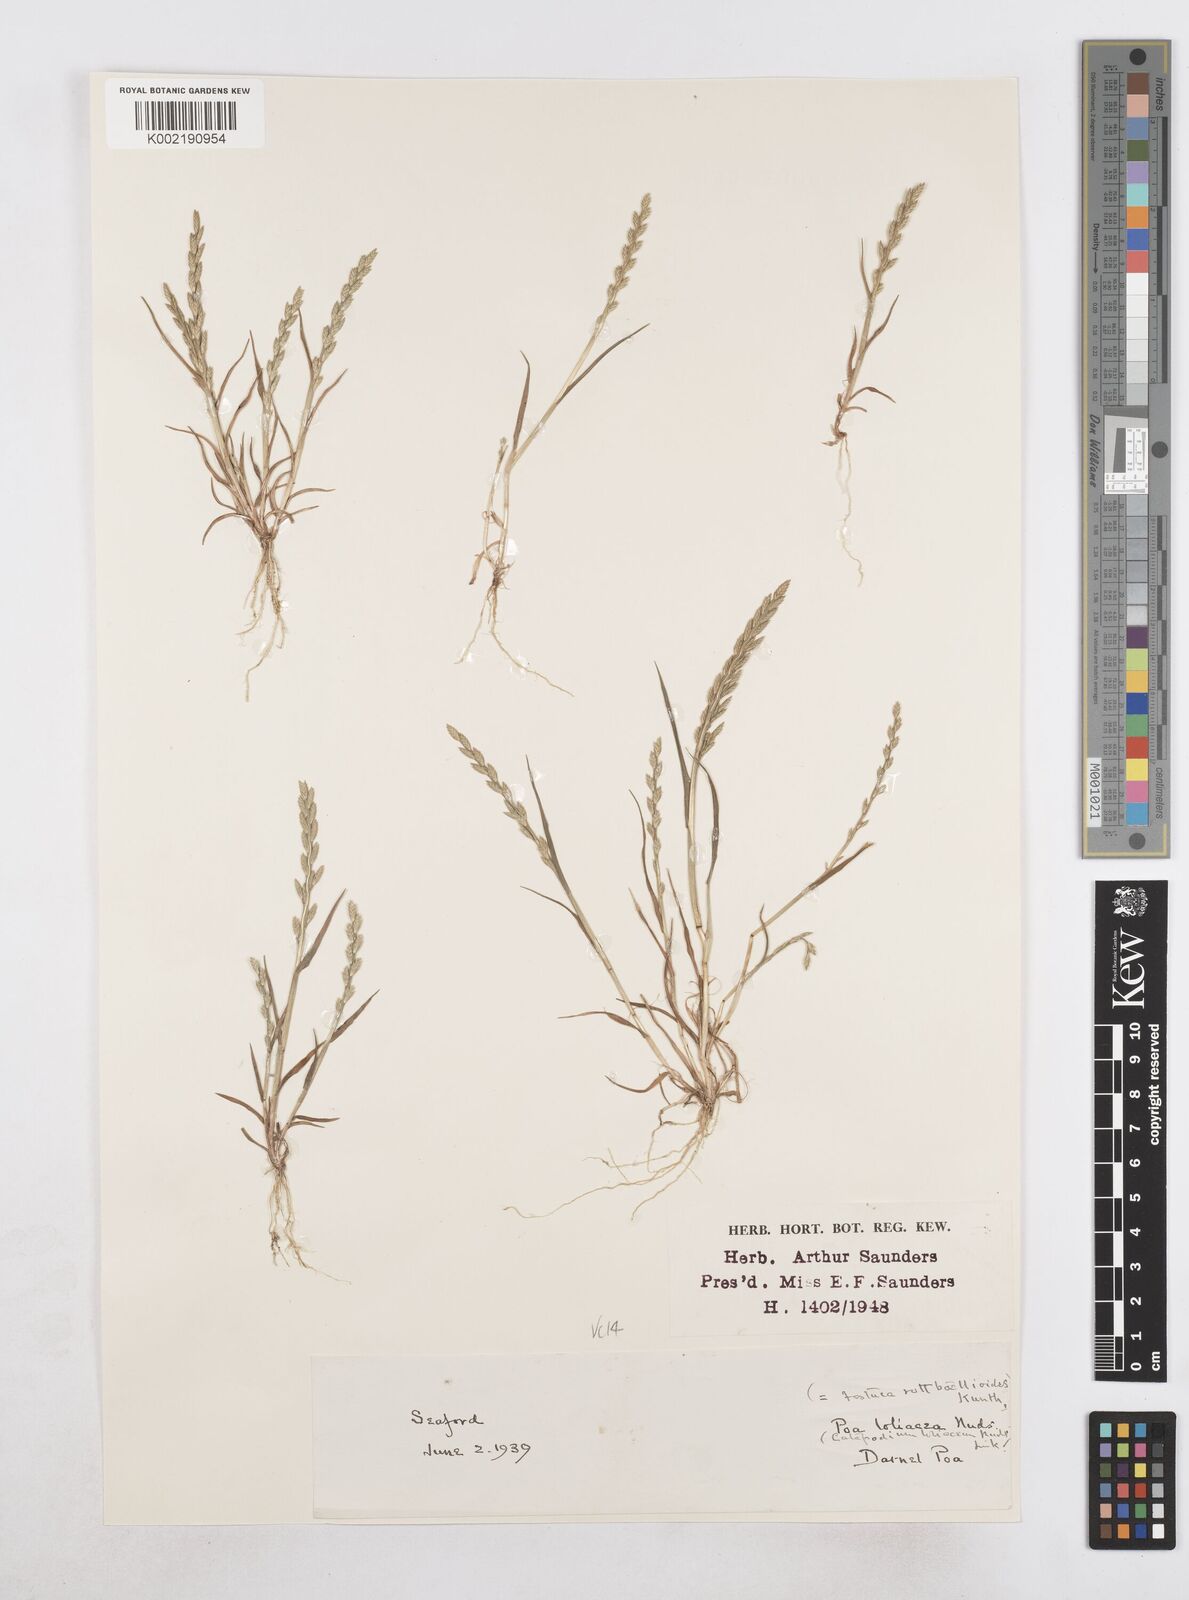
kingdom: Plantae
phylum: Tracheophyta
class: Liliopsida
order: Poales
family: Poaceae
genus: Catapodium
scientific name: Catapodium marinum
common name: Sea fern-grass
